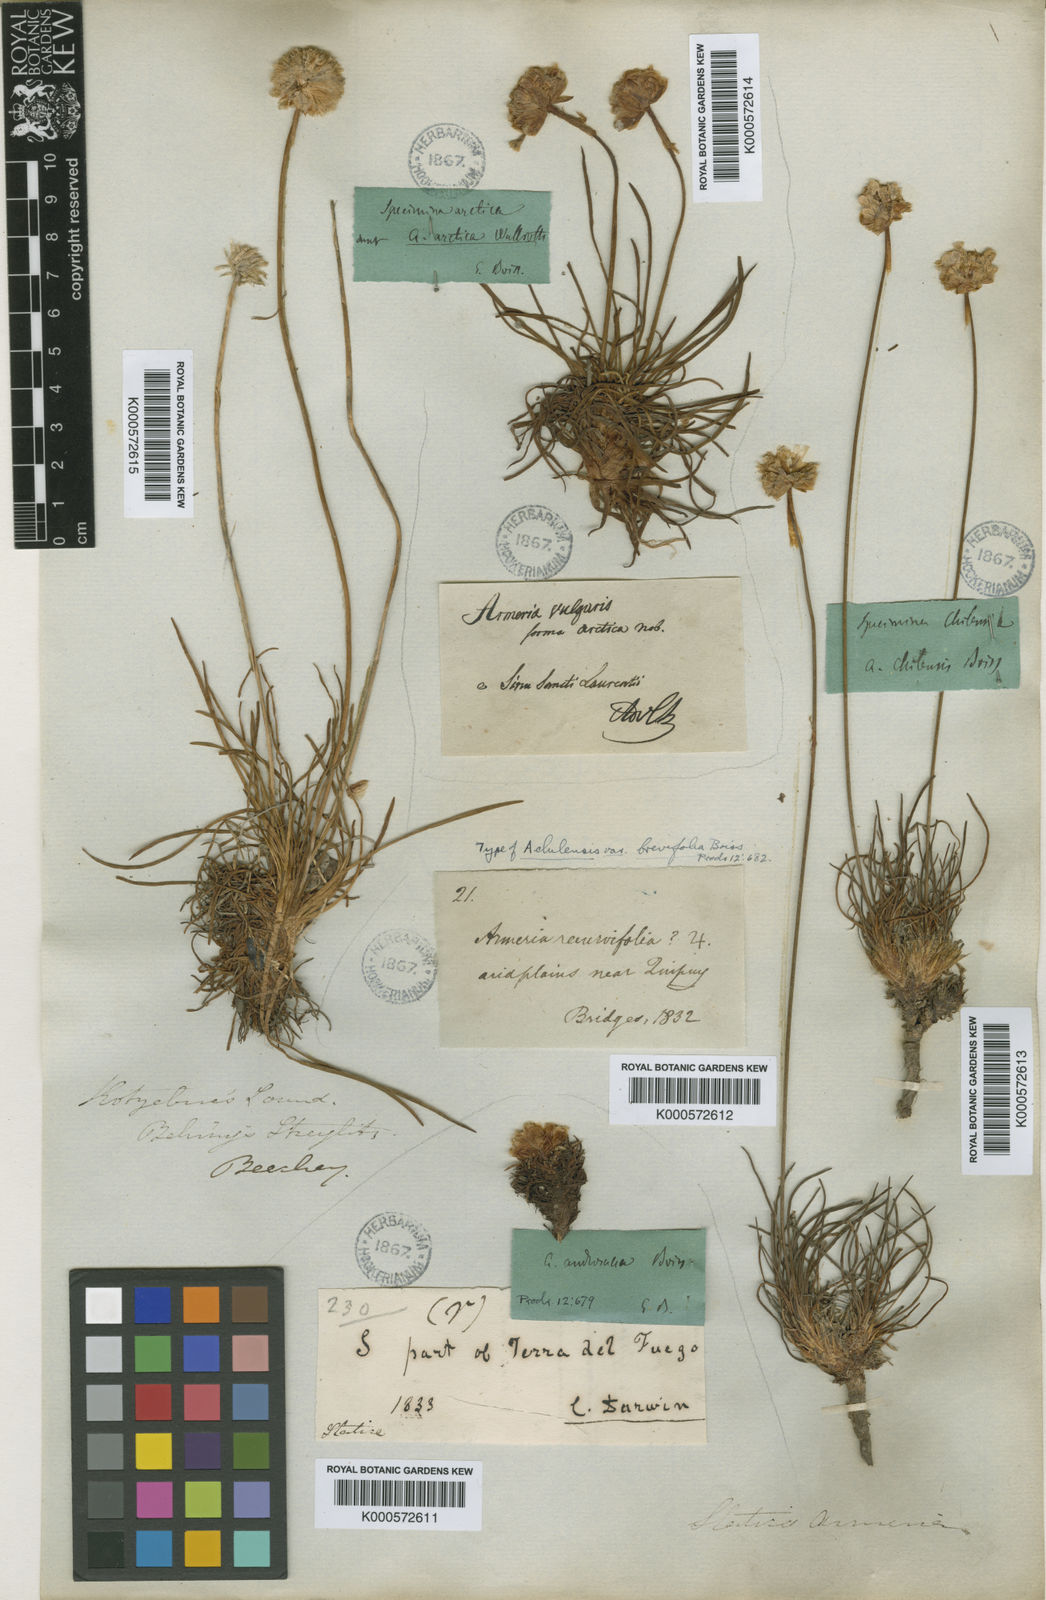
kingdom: Plantae
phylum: Tracheophyta
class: Magnoliopsida
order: Caryophyllales
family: Plumbaginaceae
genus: Armeria
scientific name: Armeria curvifolia
